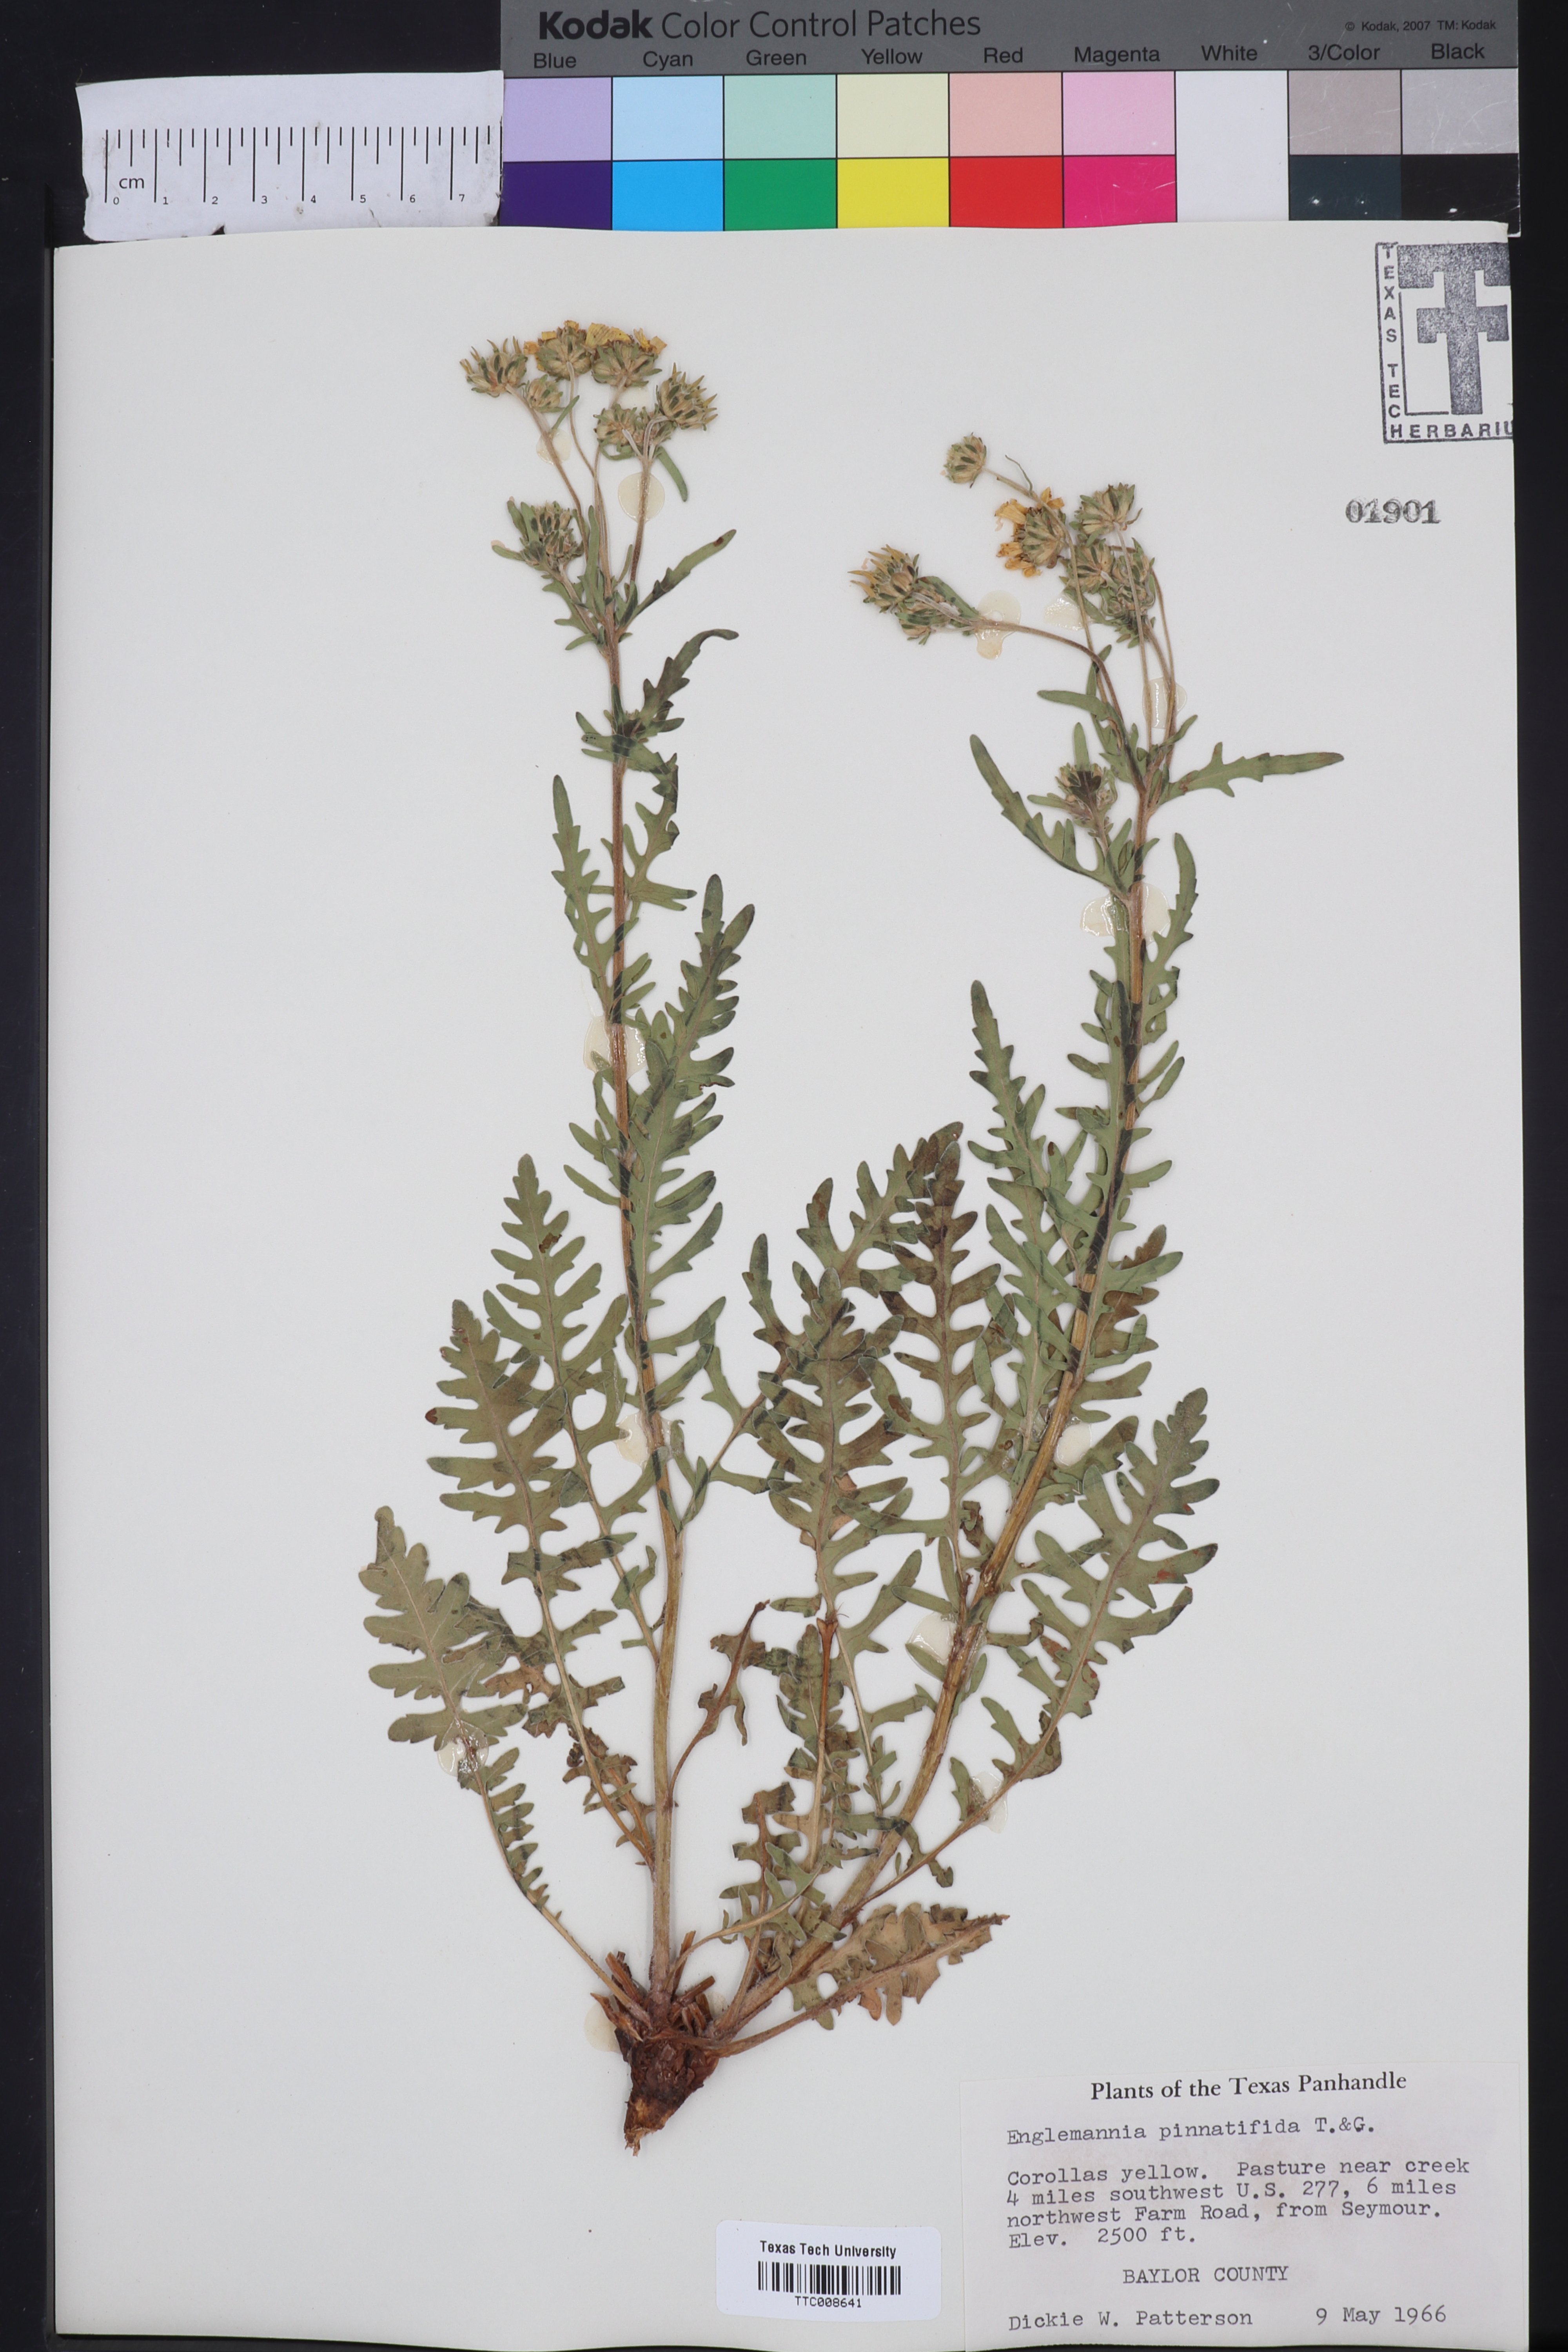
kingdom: Plantae
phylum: Tracheophyta
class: Magnoliopsida
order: Asterales
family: Asteraceae
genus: Engelmannia
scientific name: Engelmannia peristenia
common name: Engelmann's daisy
